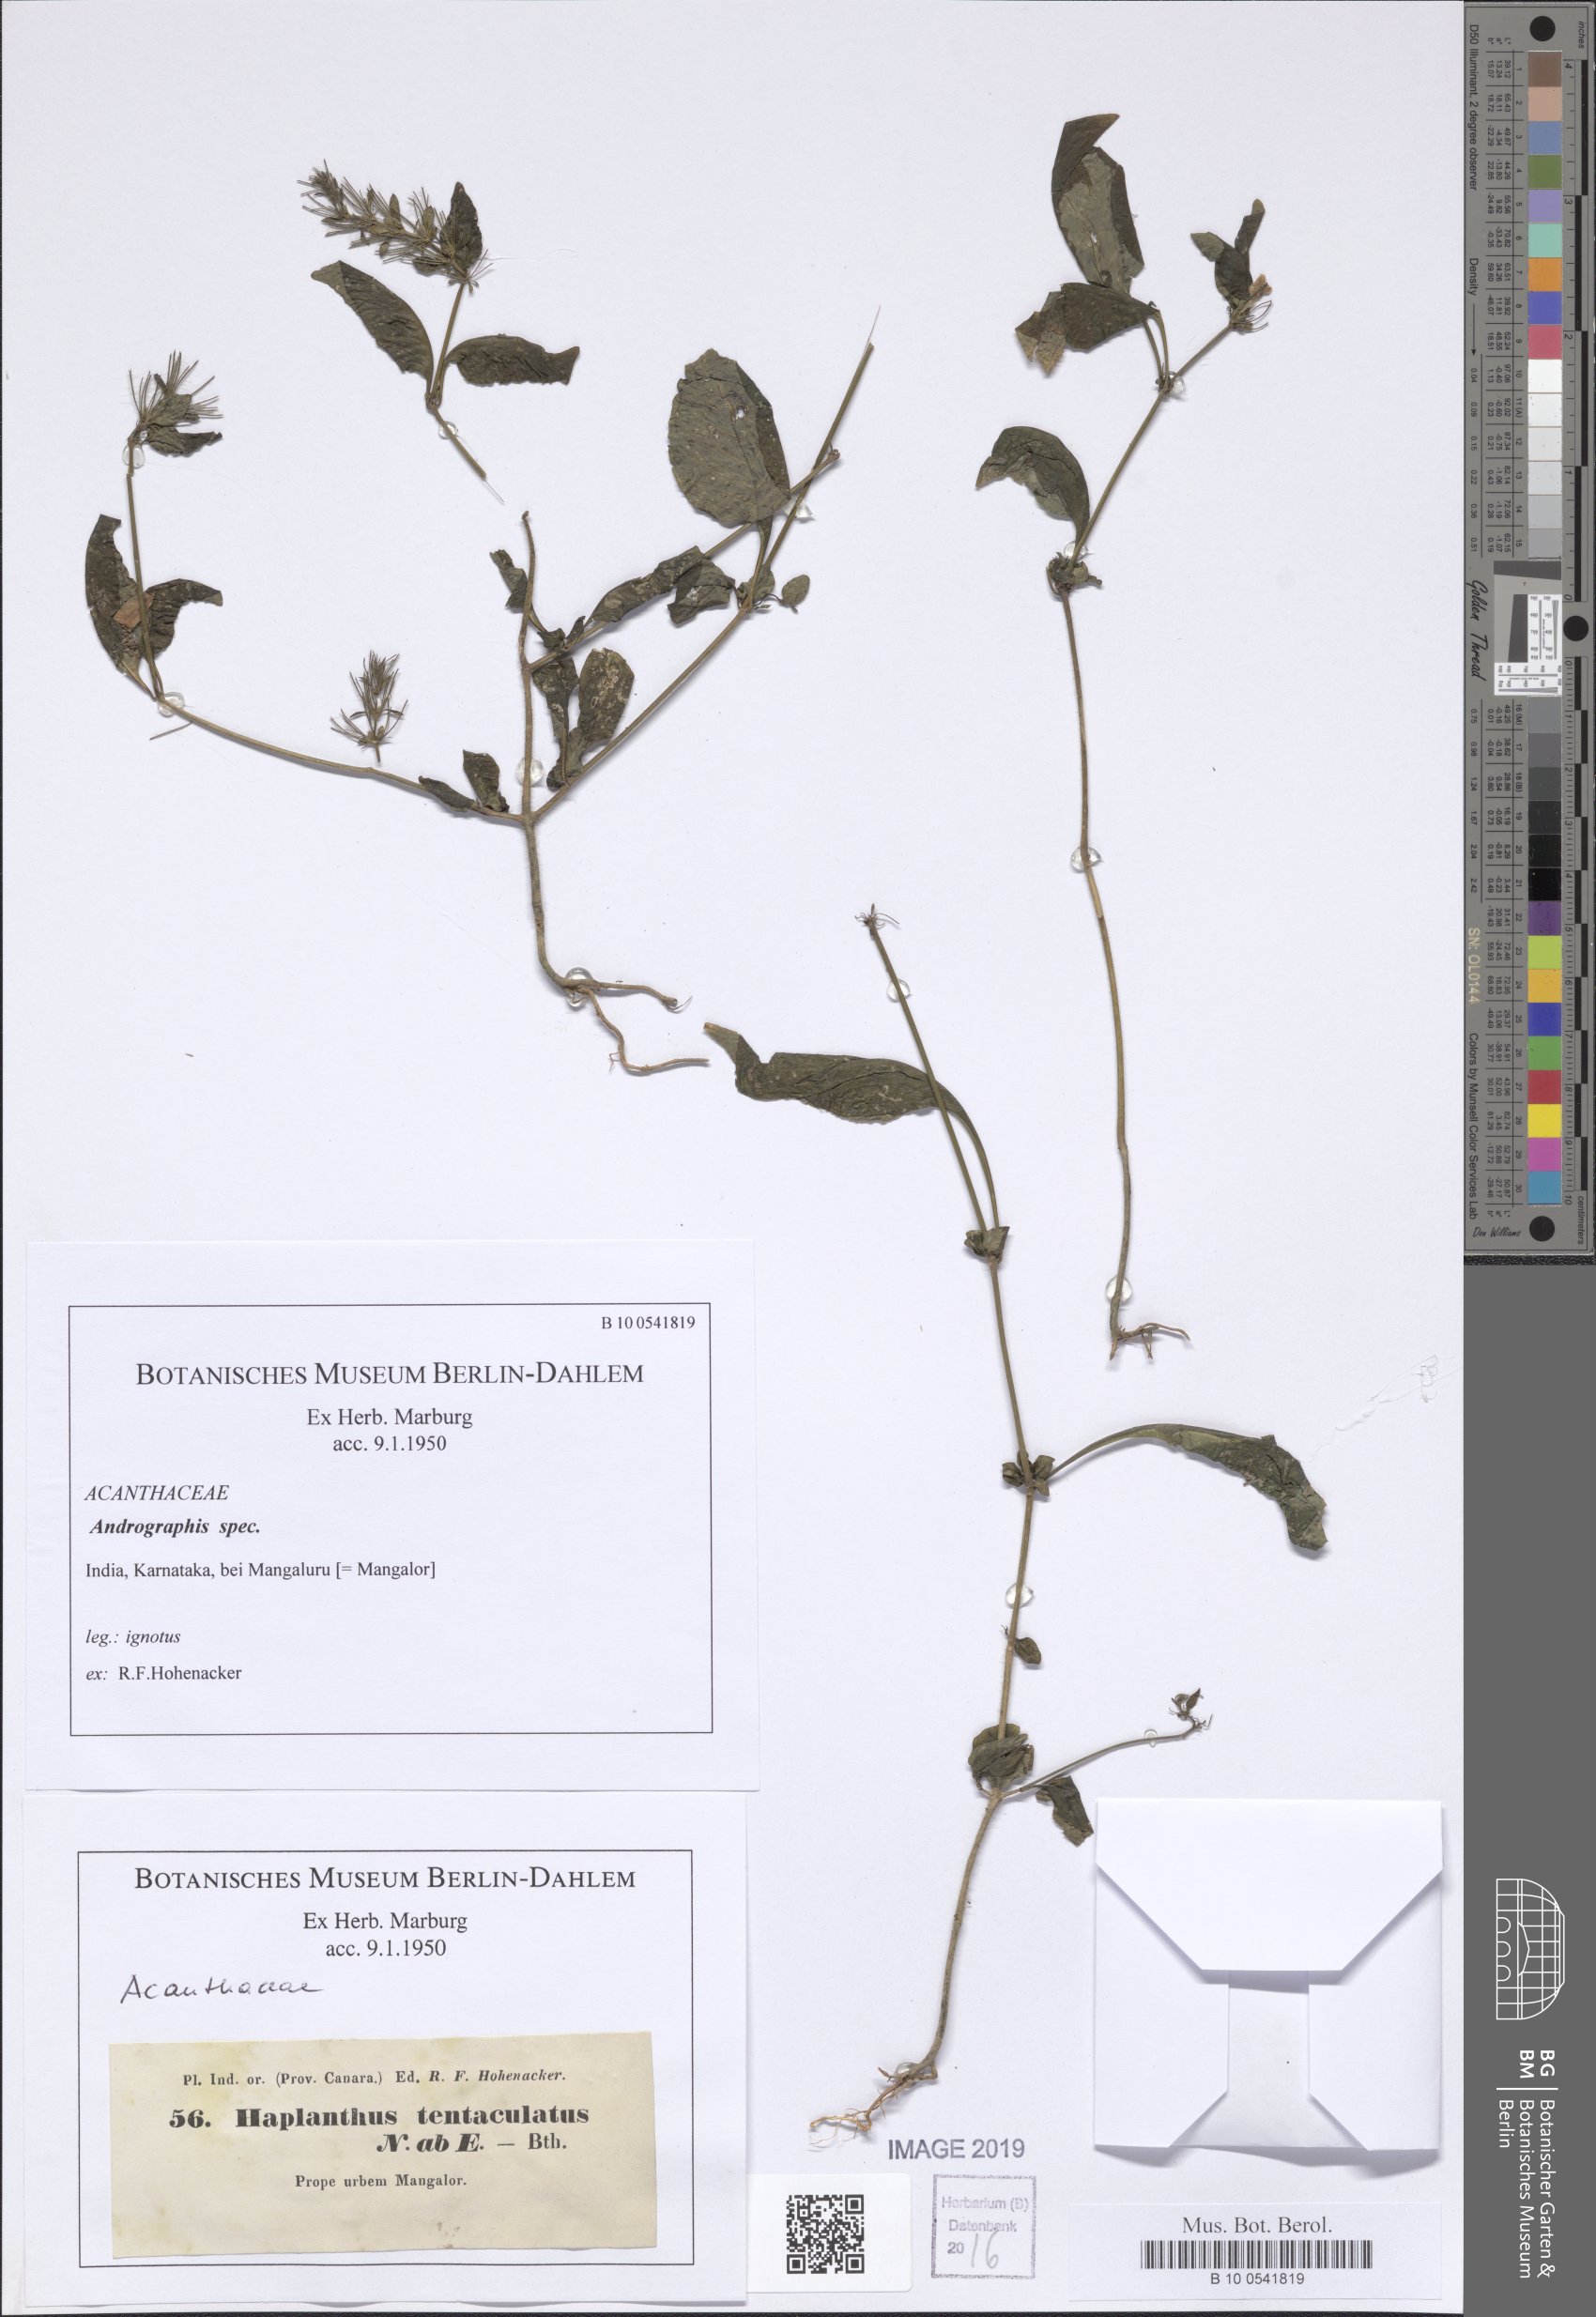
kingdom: Plantae
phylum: Tracheophyta
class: Magnoliopsida
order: Lamiales
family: Acanthaceae
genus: Andrographis
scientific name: Andrographis
